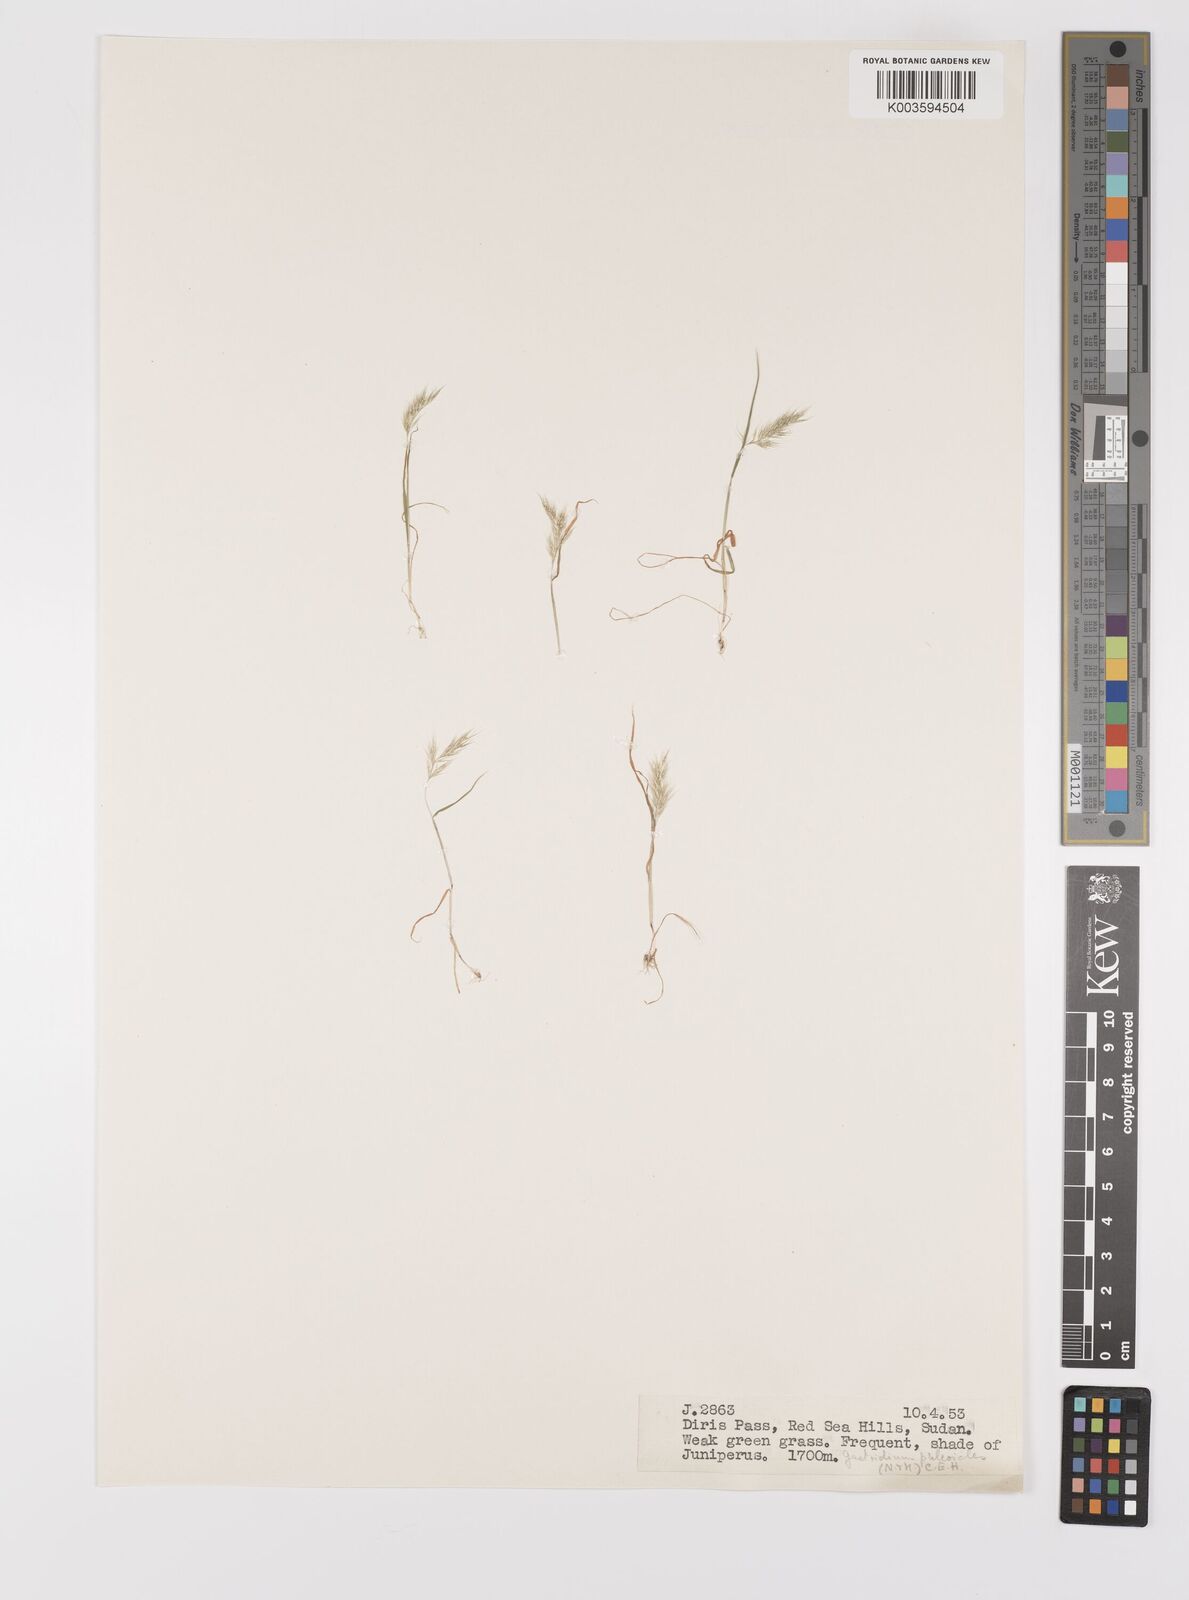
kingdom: Plantae
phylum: Tracheophyta
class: Liliopsida
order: Poales
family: Poaceae
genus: Gastridium
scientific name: Gastridium phleoides
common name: Nit grass
